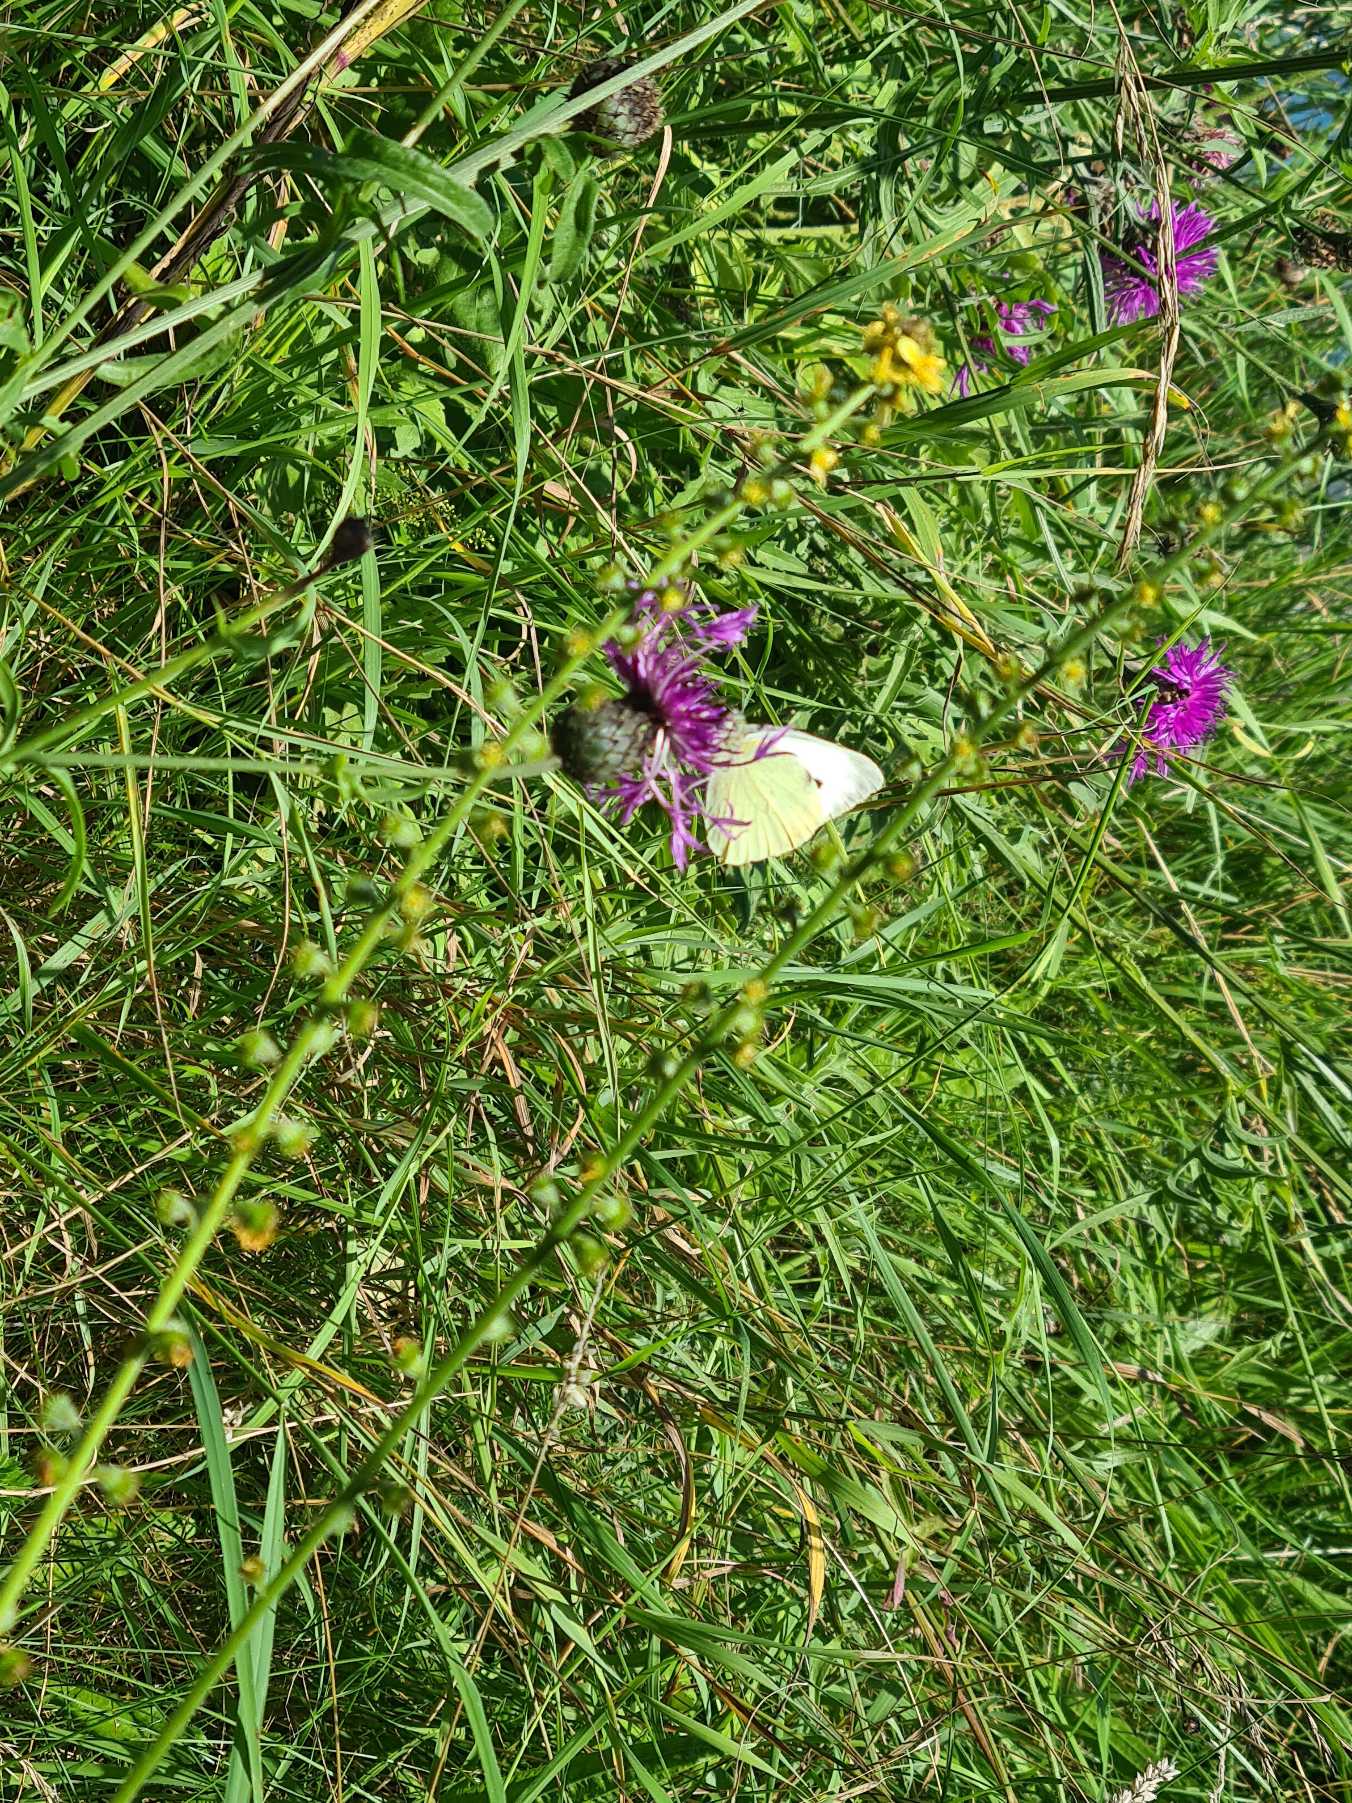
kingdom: Animalia
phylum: Arthropoda
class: Insecta
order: Lepidoptera
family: Pieridae
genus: Pieris
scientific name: Pieris brassicae
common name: Stor kålsommerfugl
